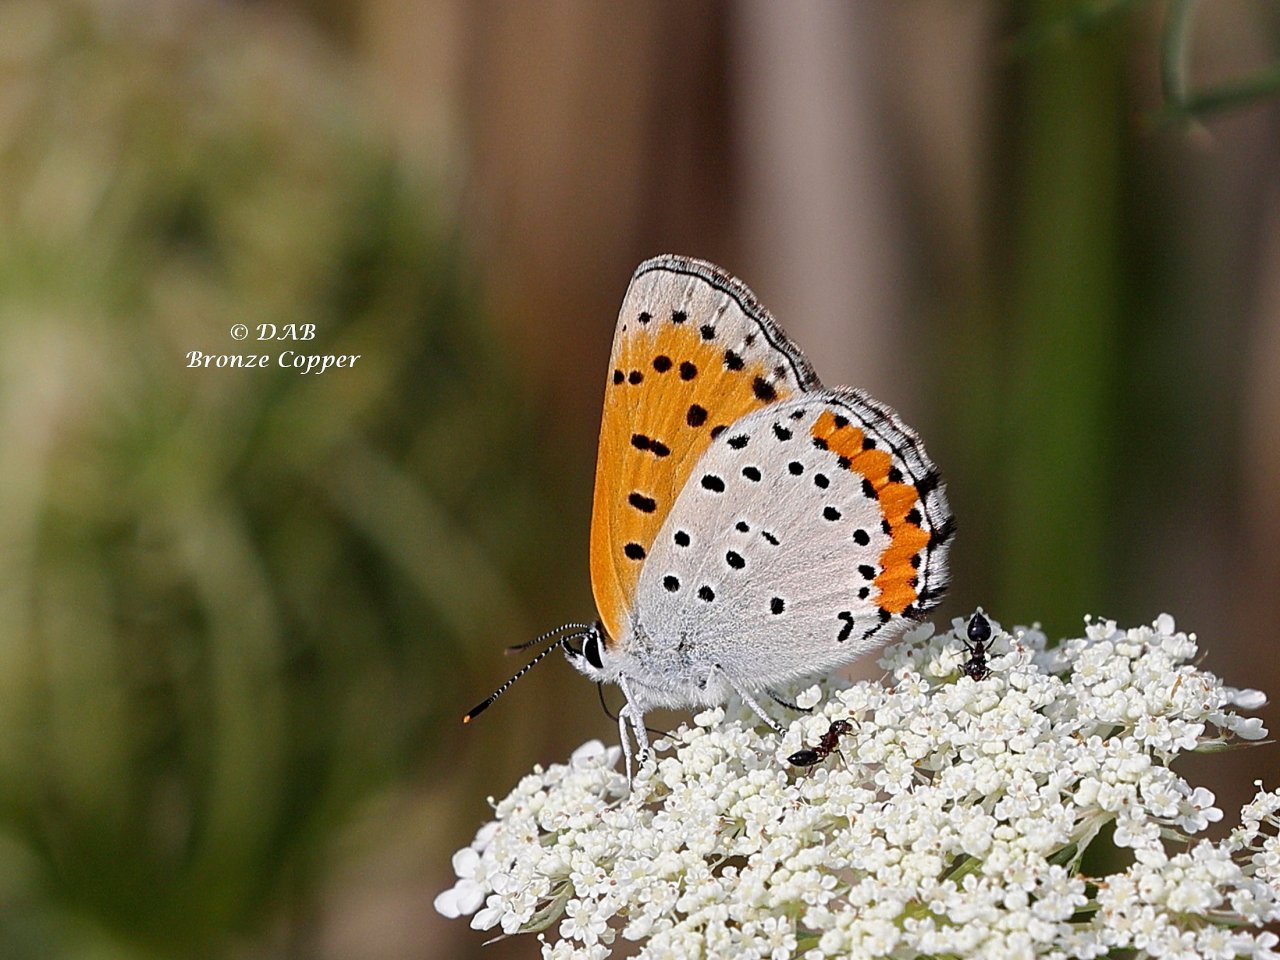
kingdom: Animalia
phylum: Arthropoda
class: Insecta
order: Lepidoptera
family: Sesiidae
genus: Sesia
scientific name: Sesia Lycaena hyllus
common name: Bronze Copper
